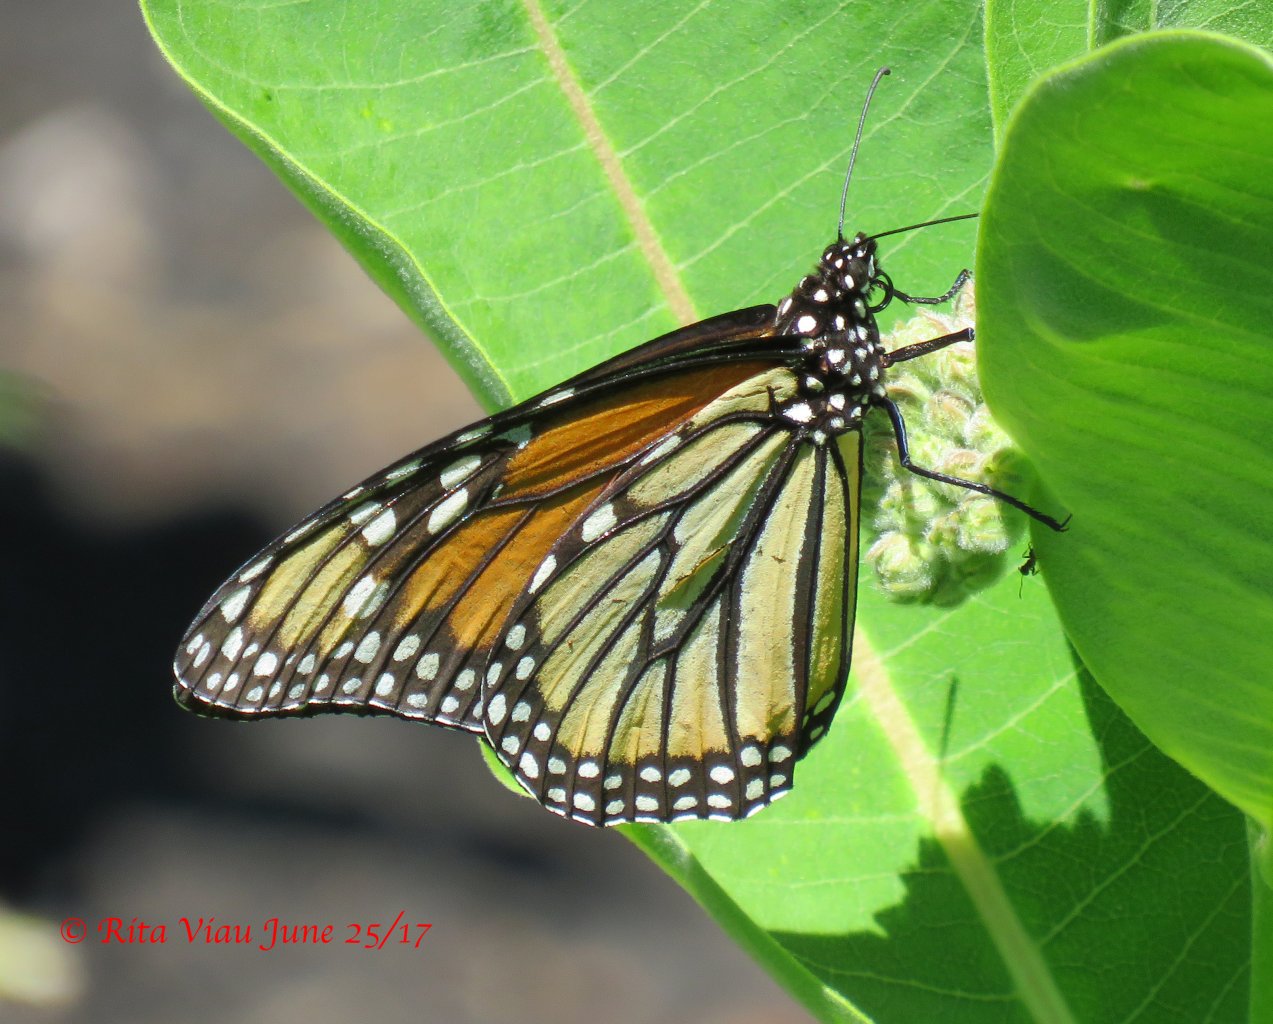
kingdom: Animalia
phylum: Arthropoda
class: Insecta
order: Lepidoptera
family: Nymphalidae
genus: Danaus
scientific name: Danaus plexippus
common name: Monarch
